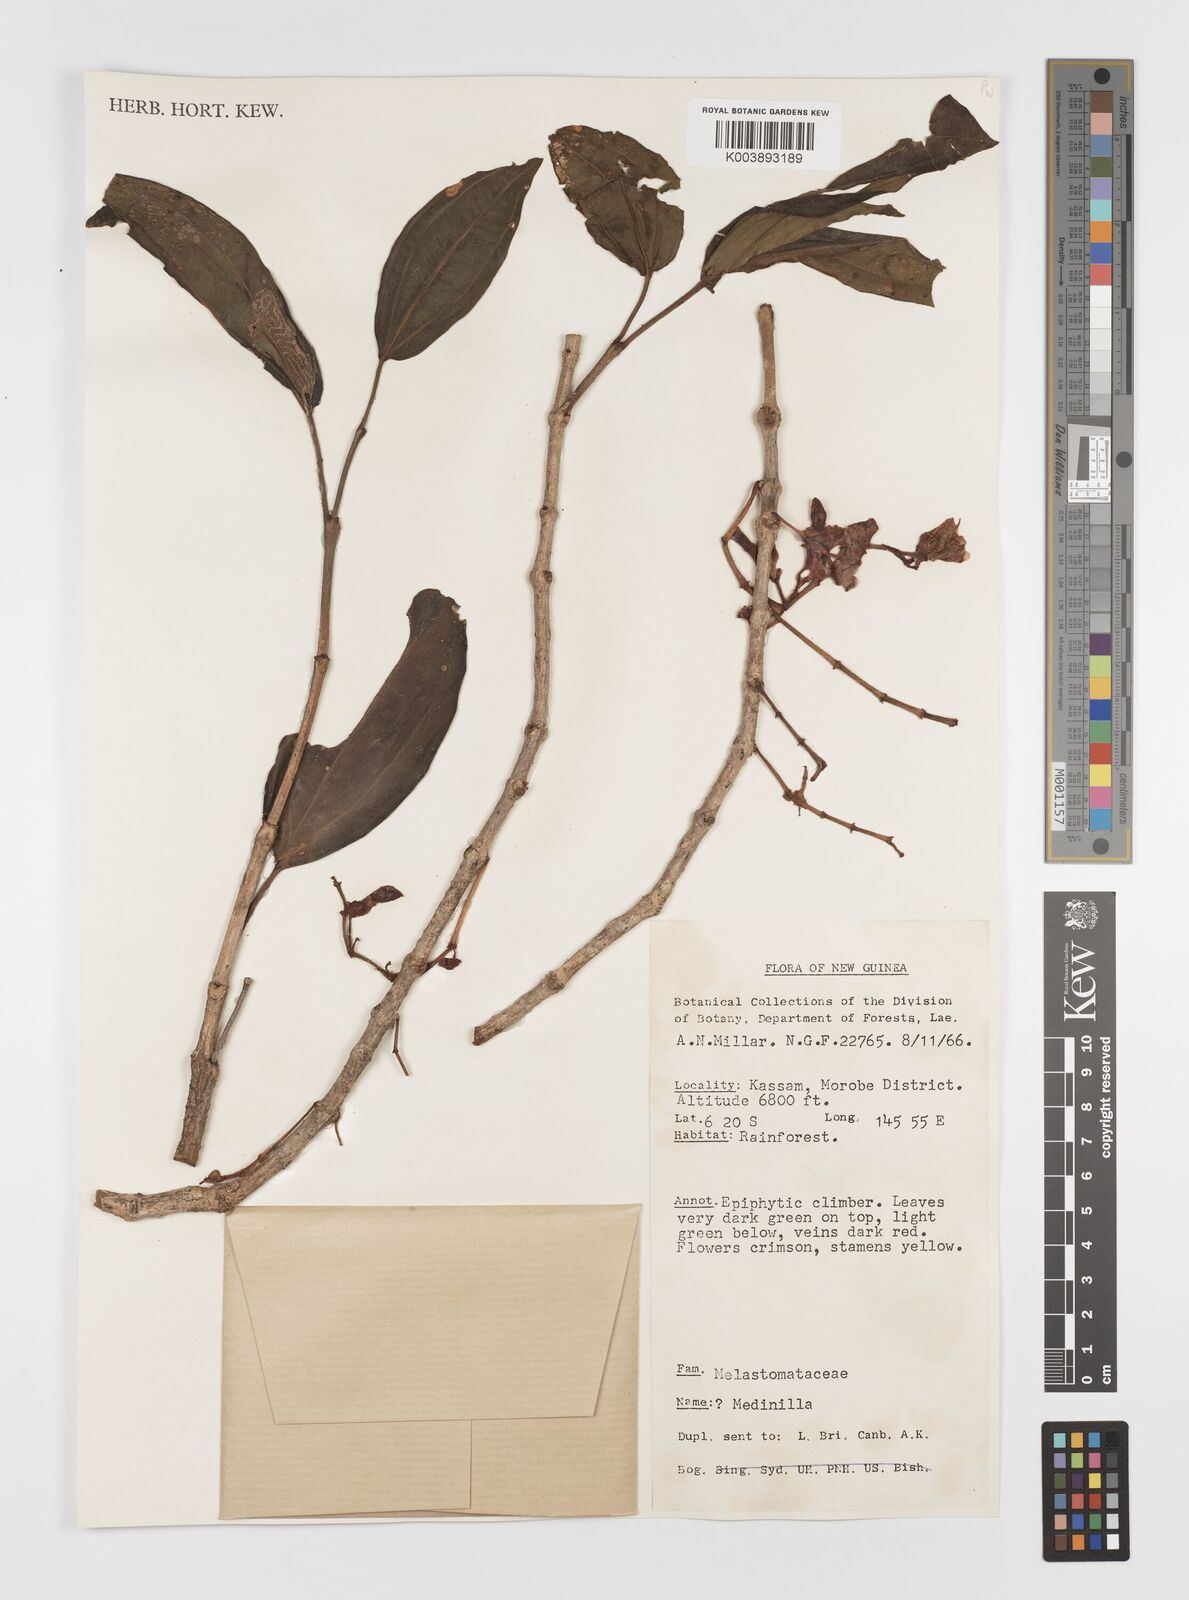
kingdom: Plantae
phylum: Tracheophyta
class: Magnoliopsida
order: Myrtales
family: Melastomataceae
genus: Medinilla
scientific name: Medinilla
